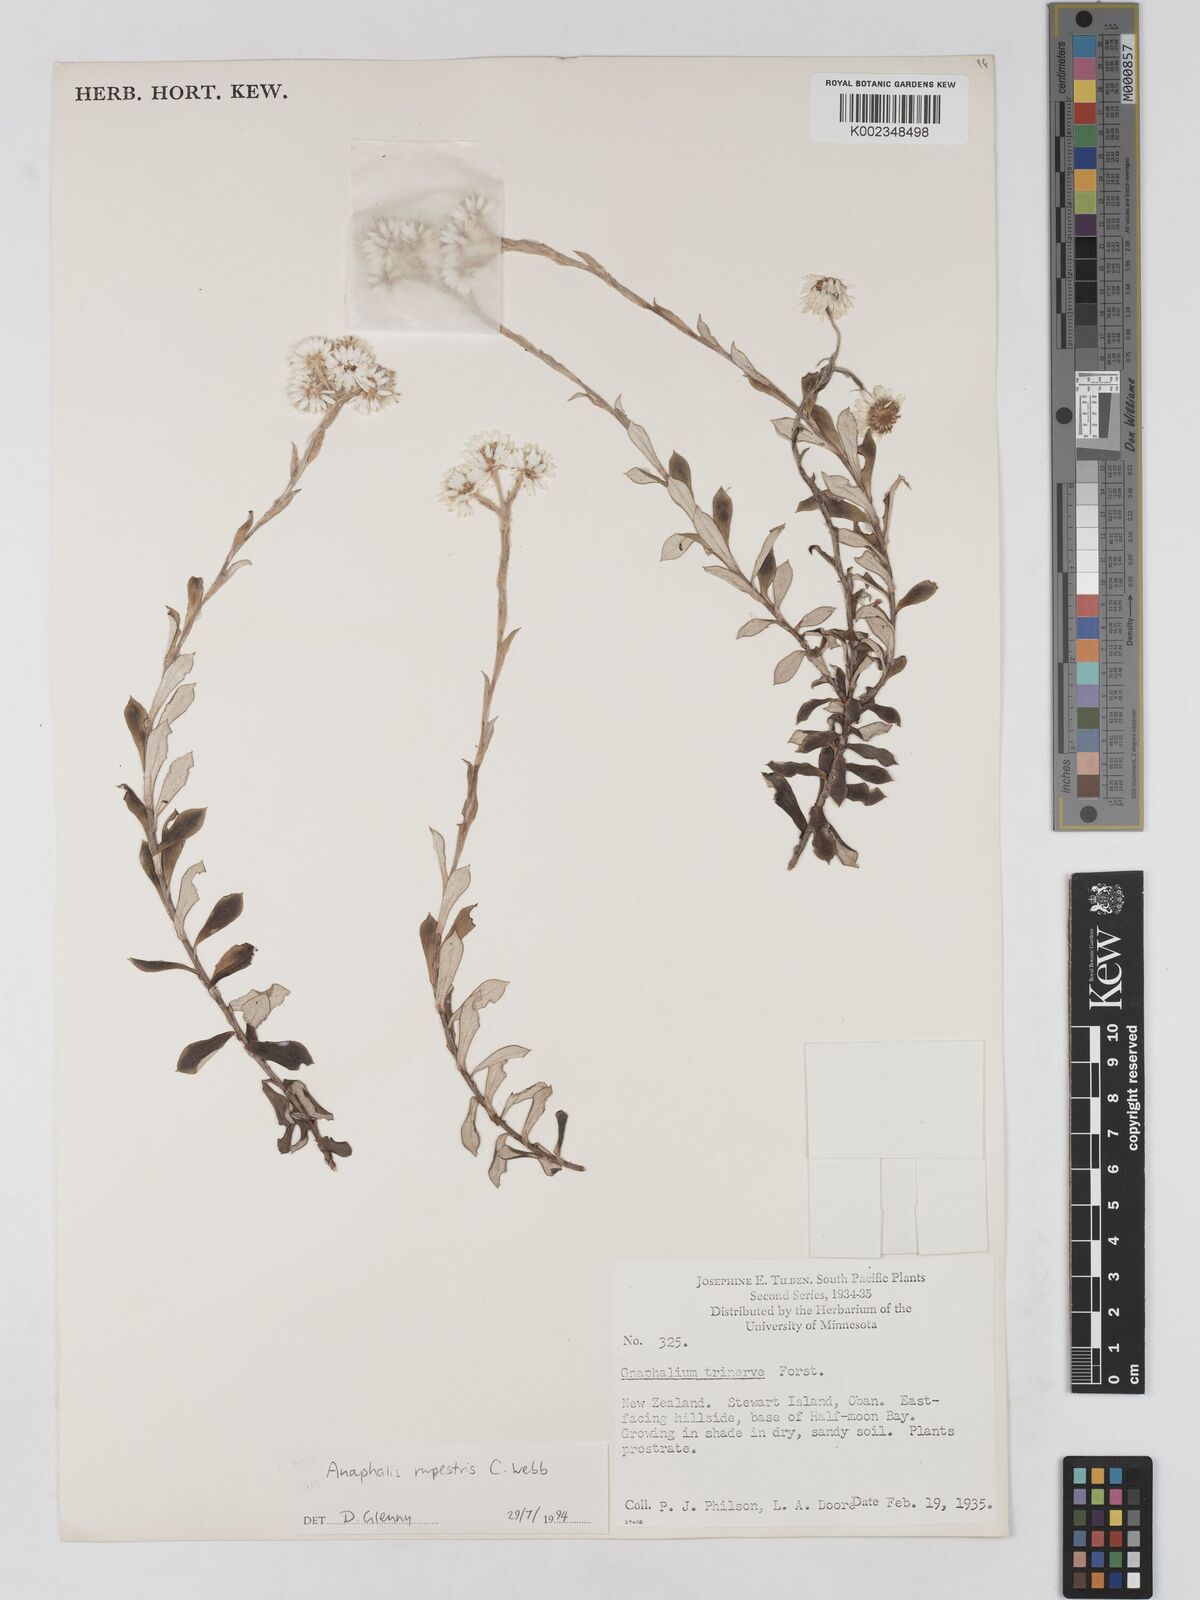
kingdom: Plantae
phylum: Tracheophyta
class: Magnoliopsida
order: Asterales
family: Asteraceae
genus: Anaphaloides
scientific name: Anaphaloides
